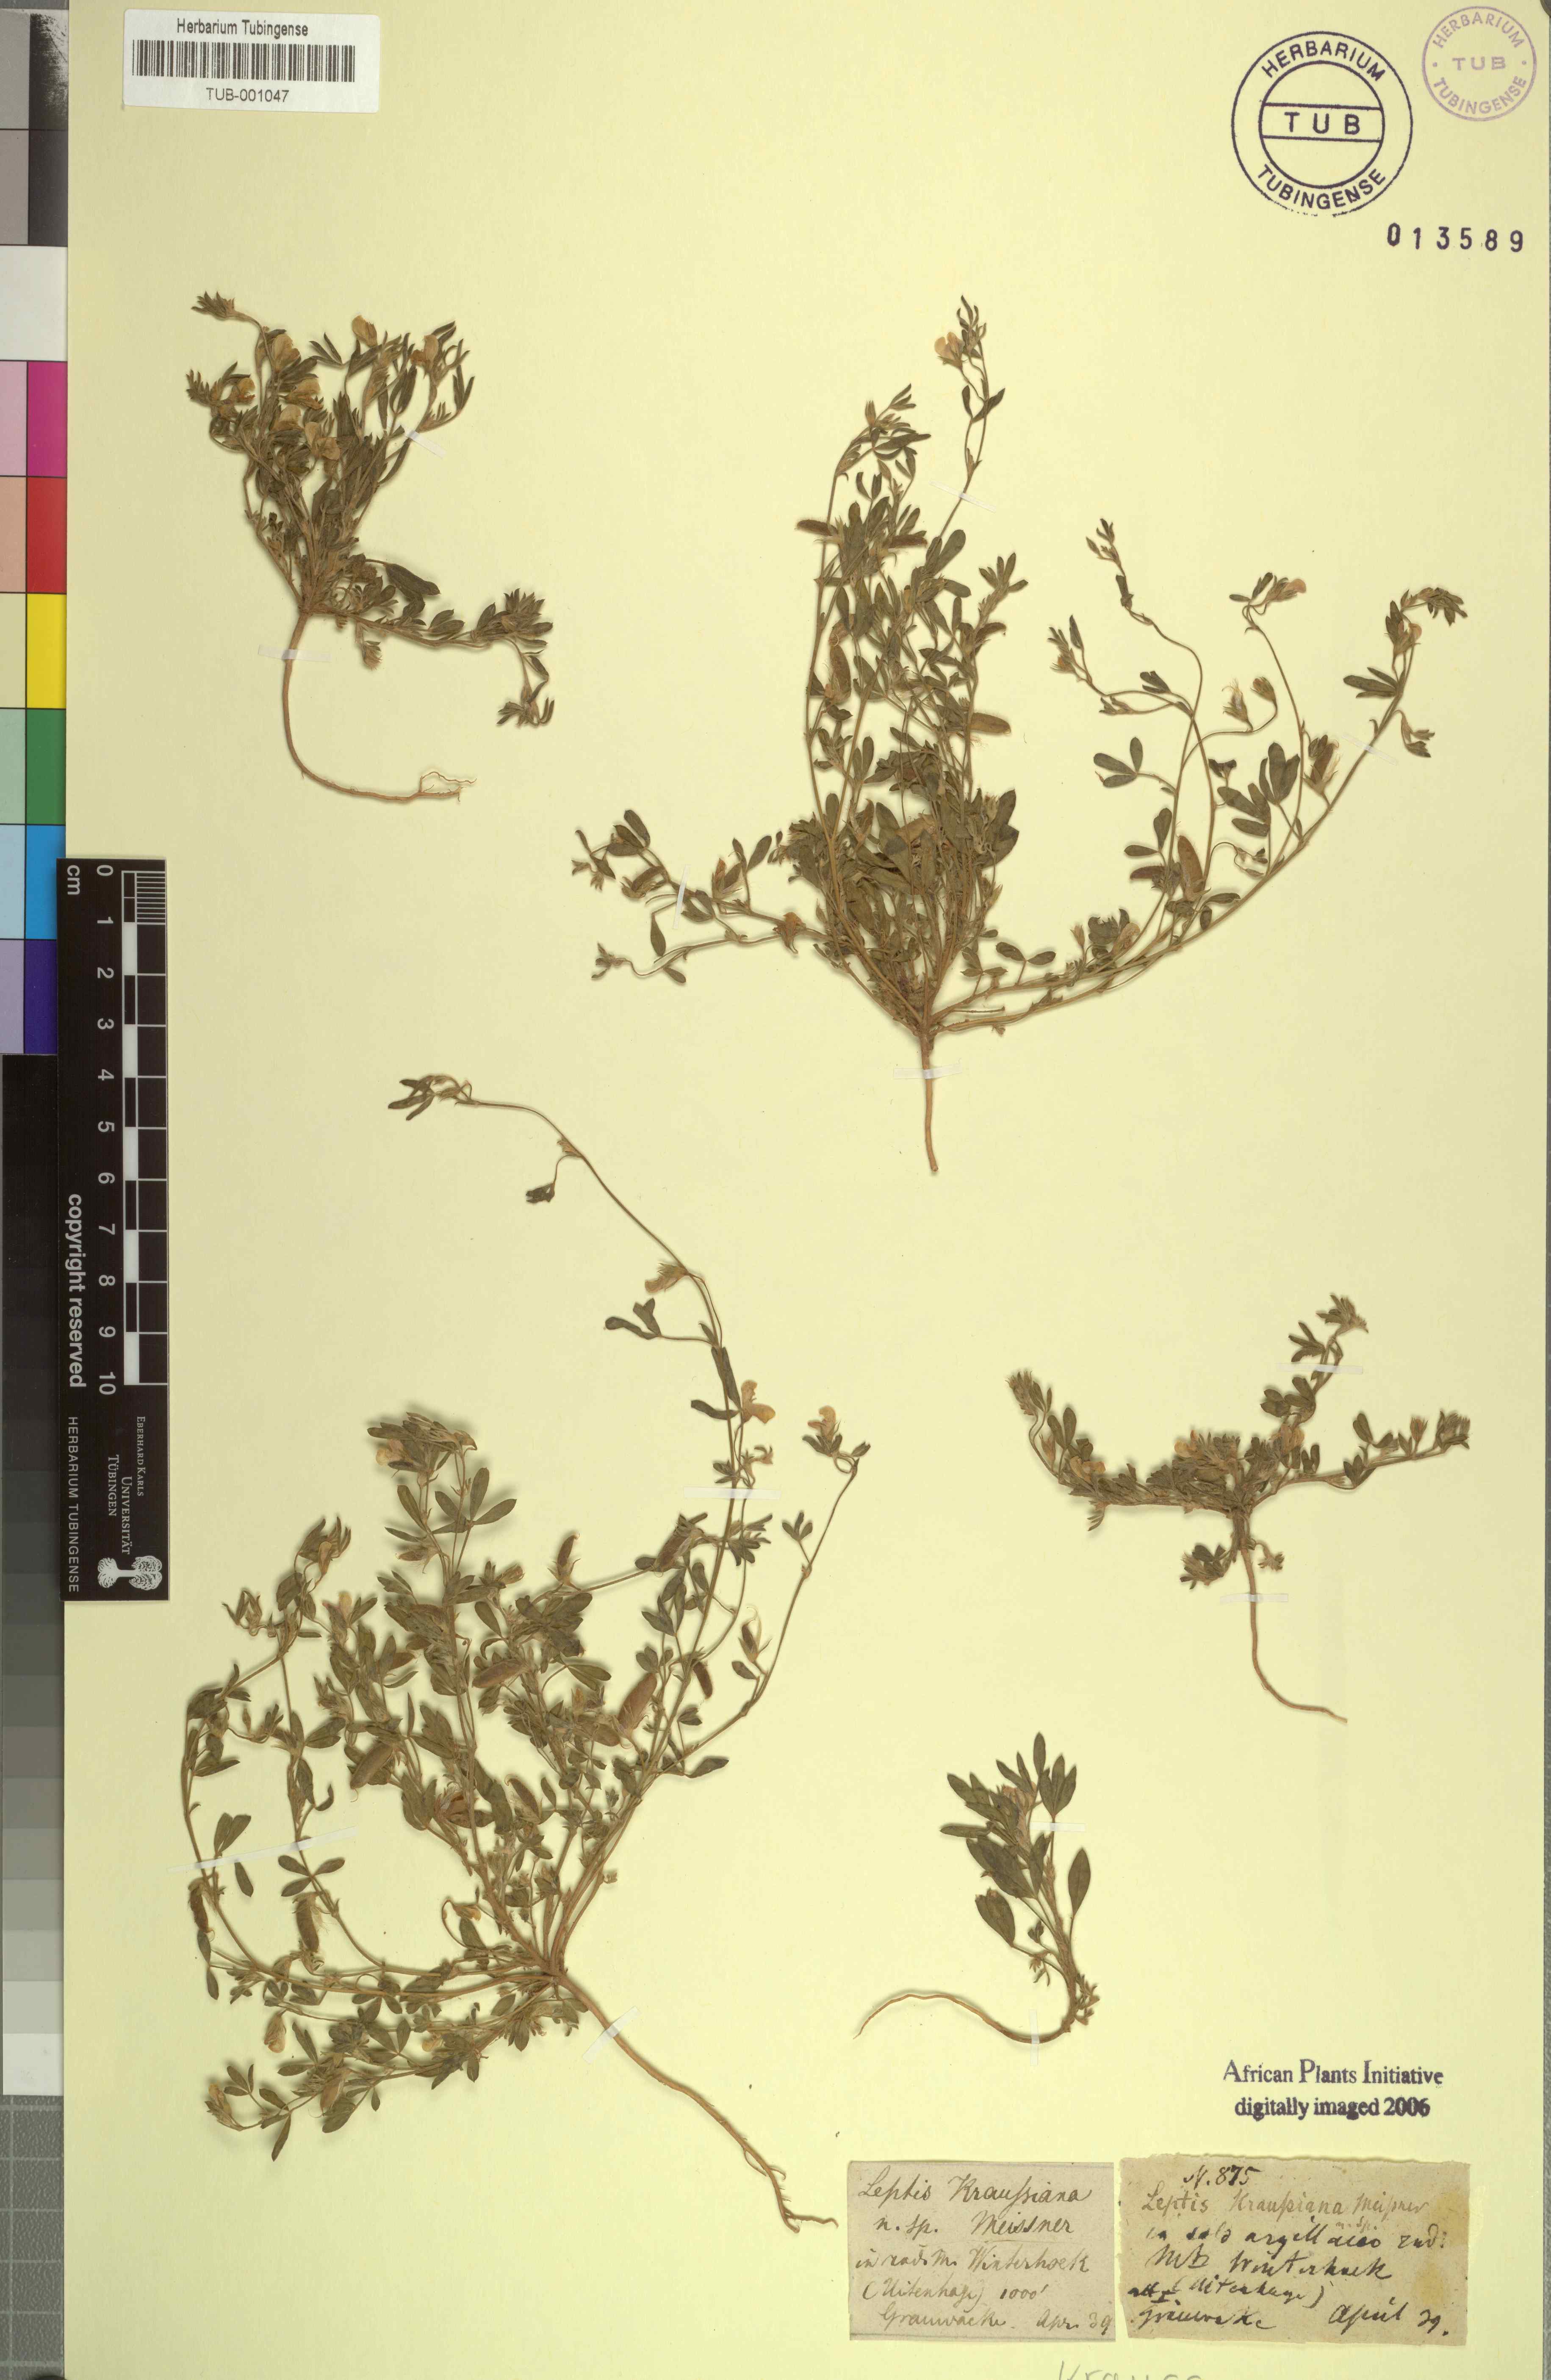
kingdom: Plantae
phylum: Tracheophyta
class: Magnoliopsida
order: Fabales
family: Fabaceae
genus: Leobordea
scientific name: Leobordea decumbens
